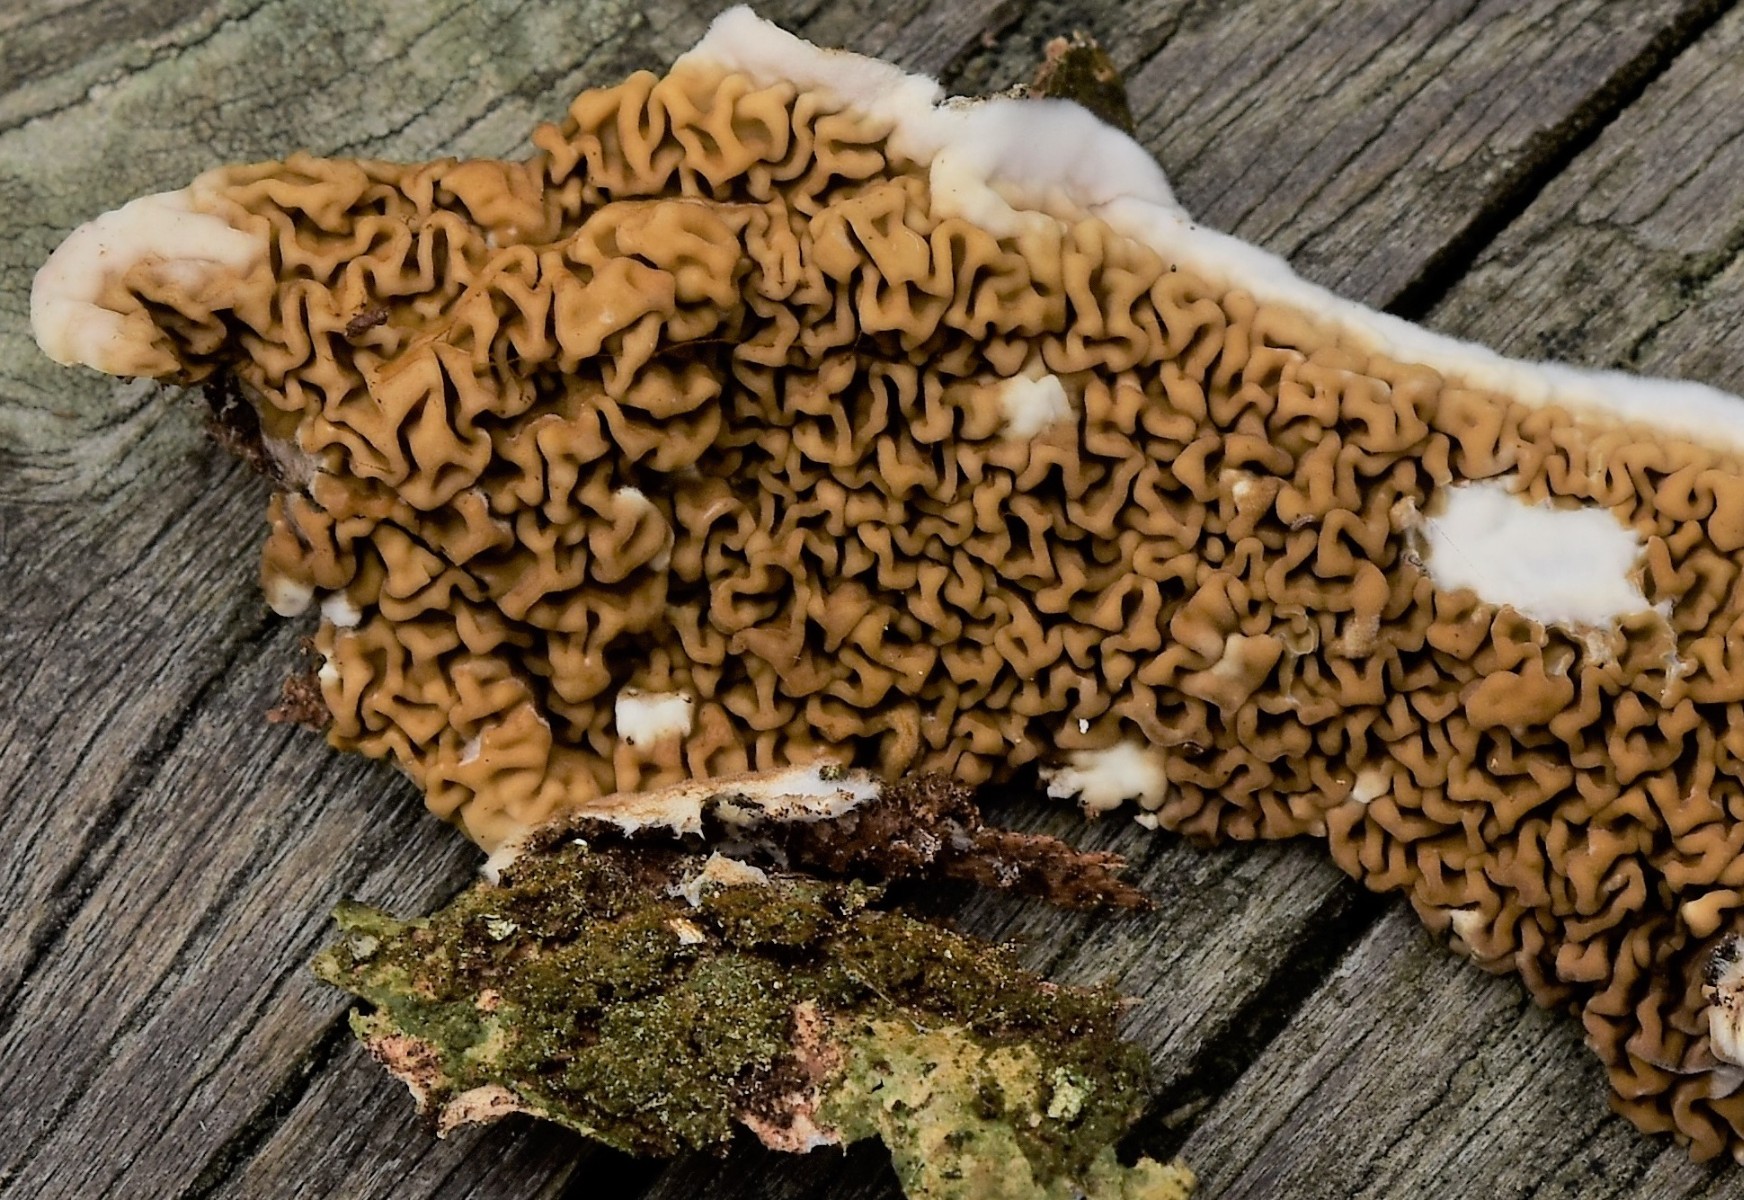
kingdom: Fungi
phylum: Basidiomycota
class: Agaricomycetes
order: Boletales
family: Serpulaceae
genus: Serpula
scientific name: Serpula himantioides
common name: tyndkødet hussvamp
